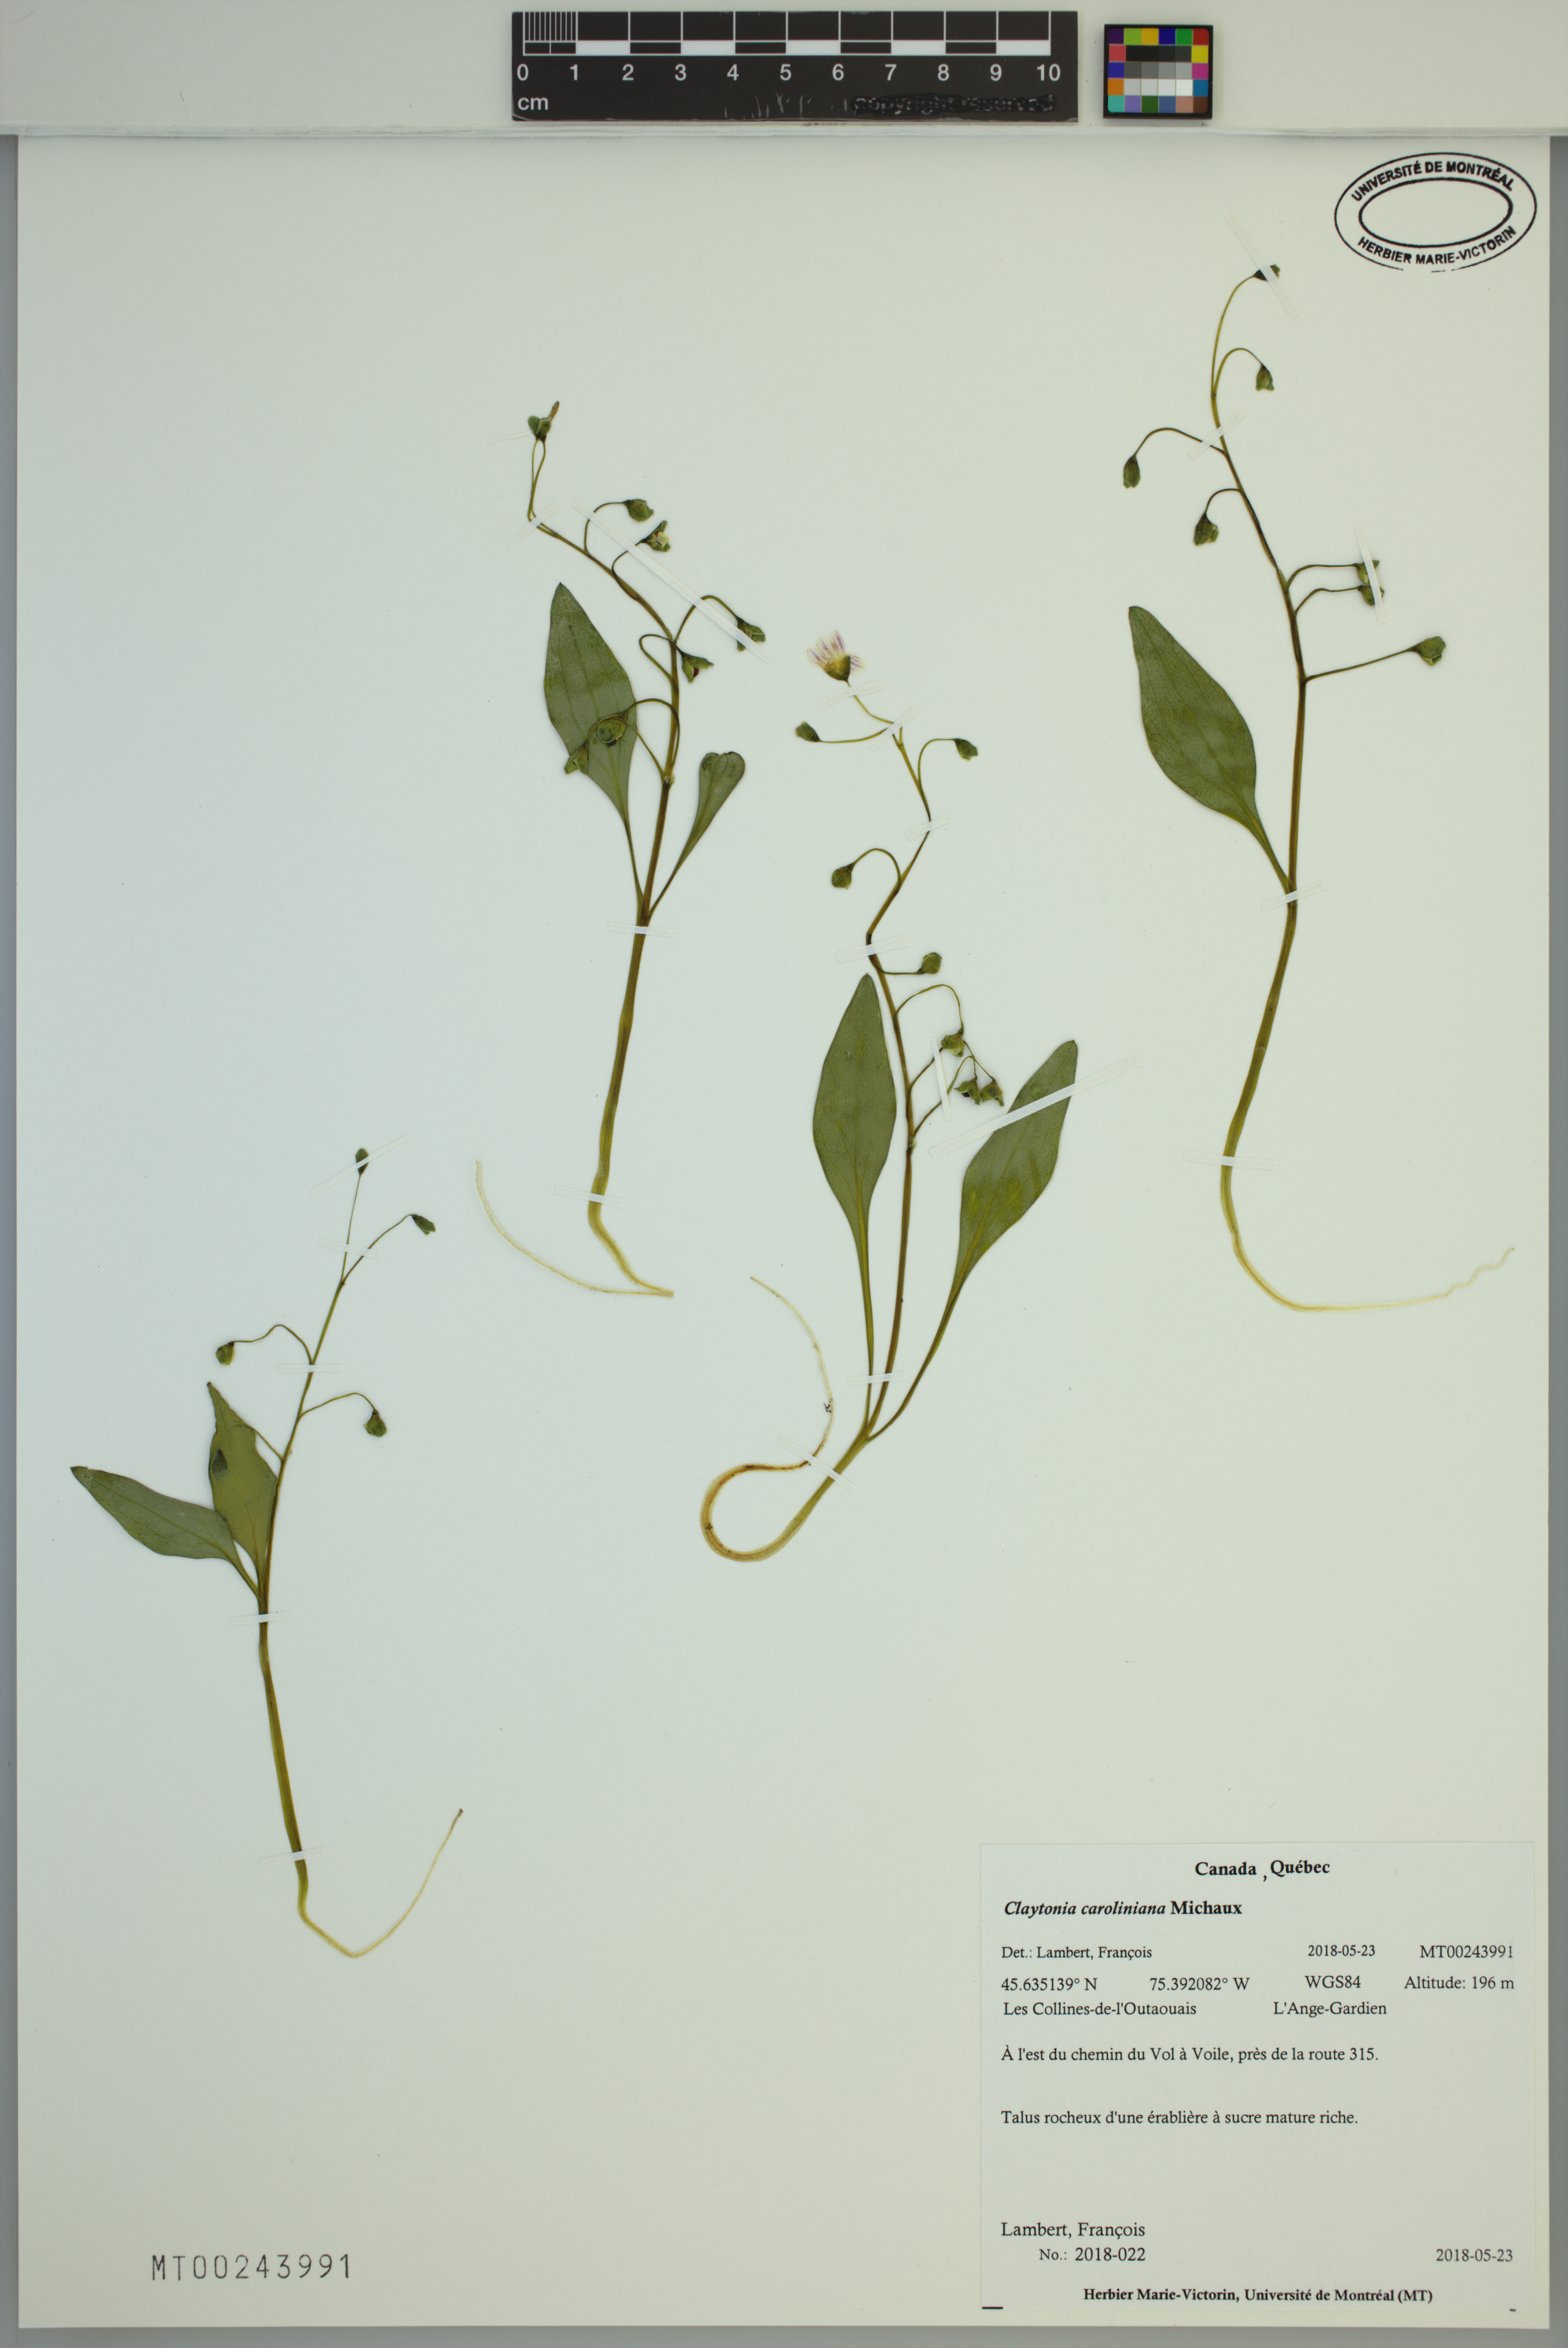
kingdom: Plantae
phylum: Tracheophyta
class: Magnoliopsida
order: Caryophyllales
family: Montiaceae
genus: Claytonia
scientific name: Claytonia caroliniana
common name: Carolina spring beauty
